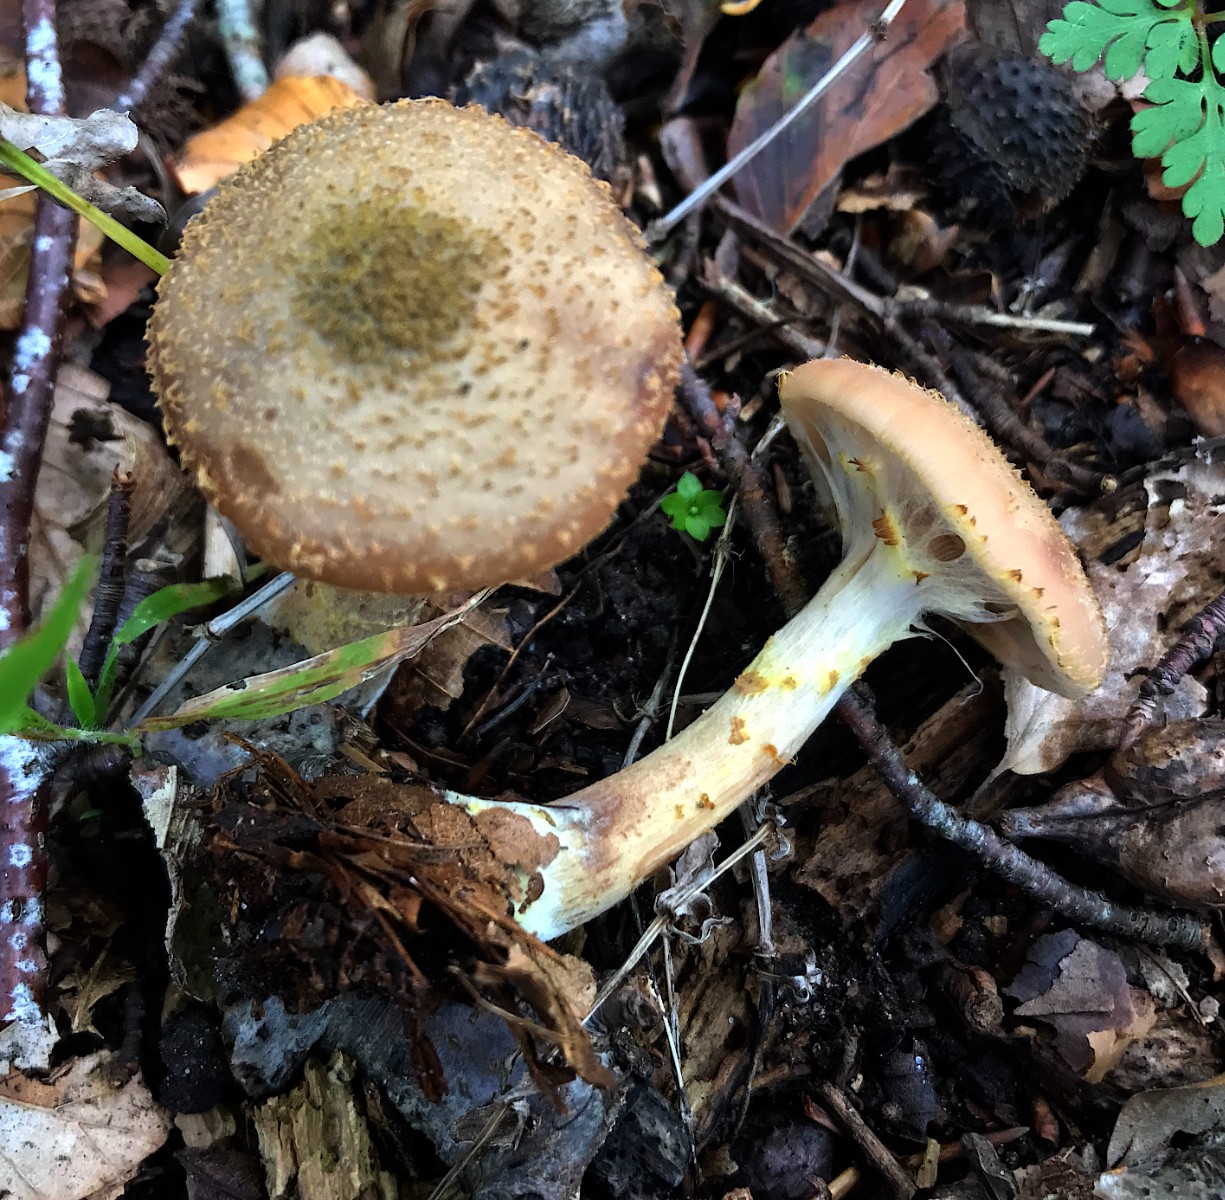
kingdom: Fungi
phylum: Basidiomycota
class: Agaricomycetes
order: Agaricales
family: Physalacriaceae
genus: Armillaria
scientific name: Armillaria lutea
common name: køllestokket honningsvamp
